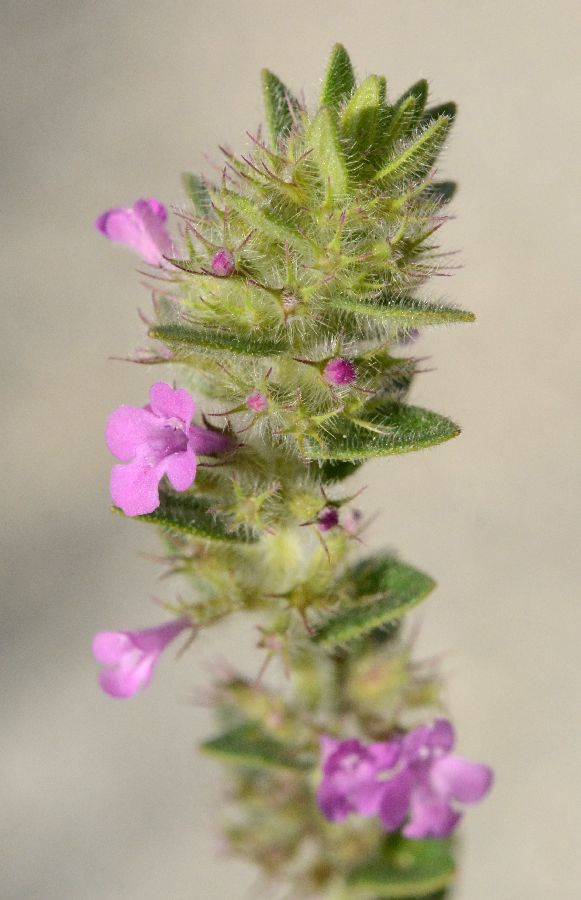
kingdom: Plantae
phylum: Tracheophyta
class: Magnoliopsida
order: Lamiales
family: Lamiaceae
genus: Micromeria
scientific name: Micromeria nervosa
